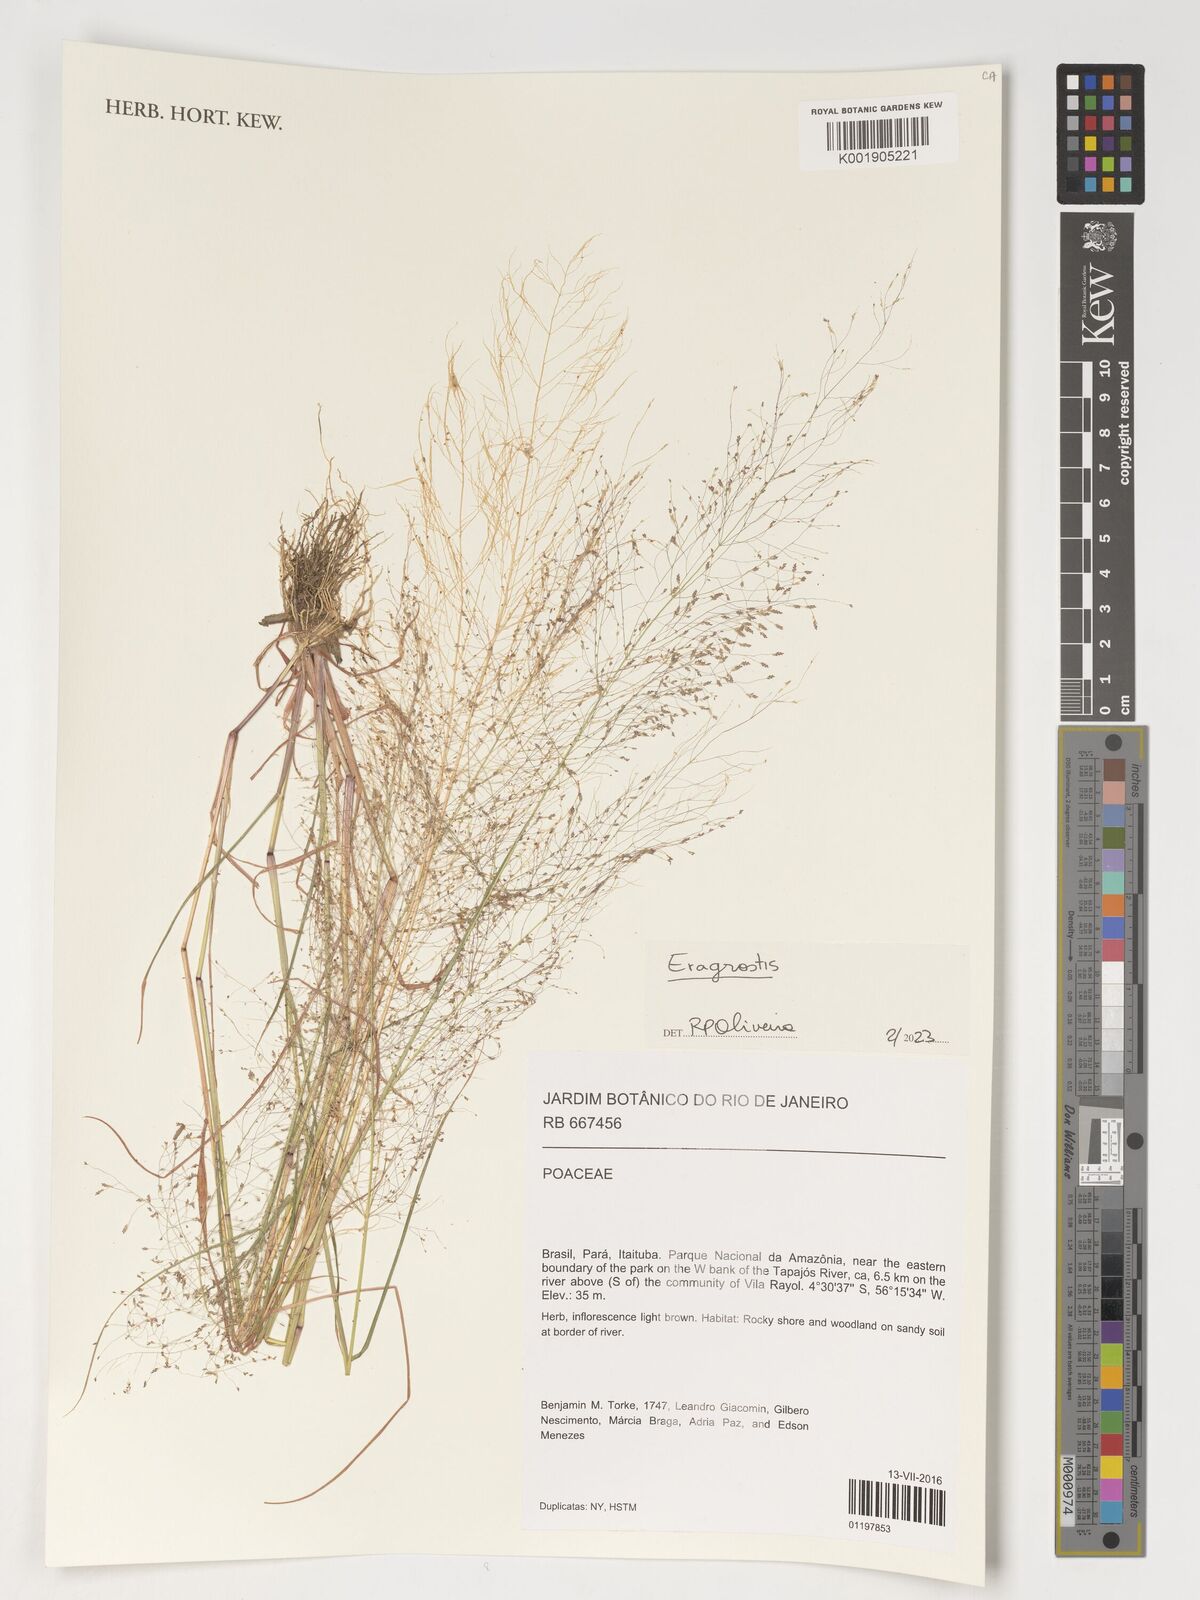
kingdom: Plantae
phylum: Tracheophyta
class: Liliopsida
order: Poales
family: Poaceae
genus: Eragrostis
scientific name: Eragrostis
